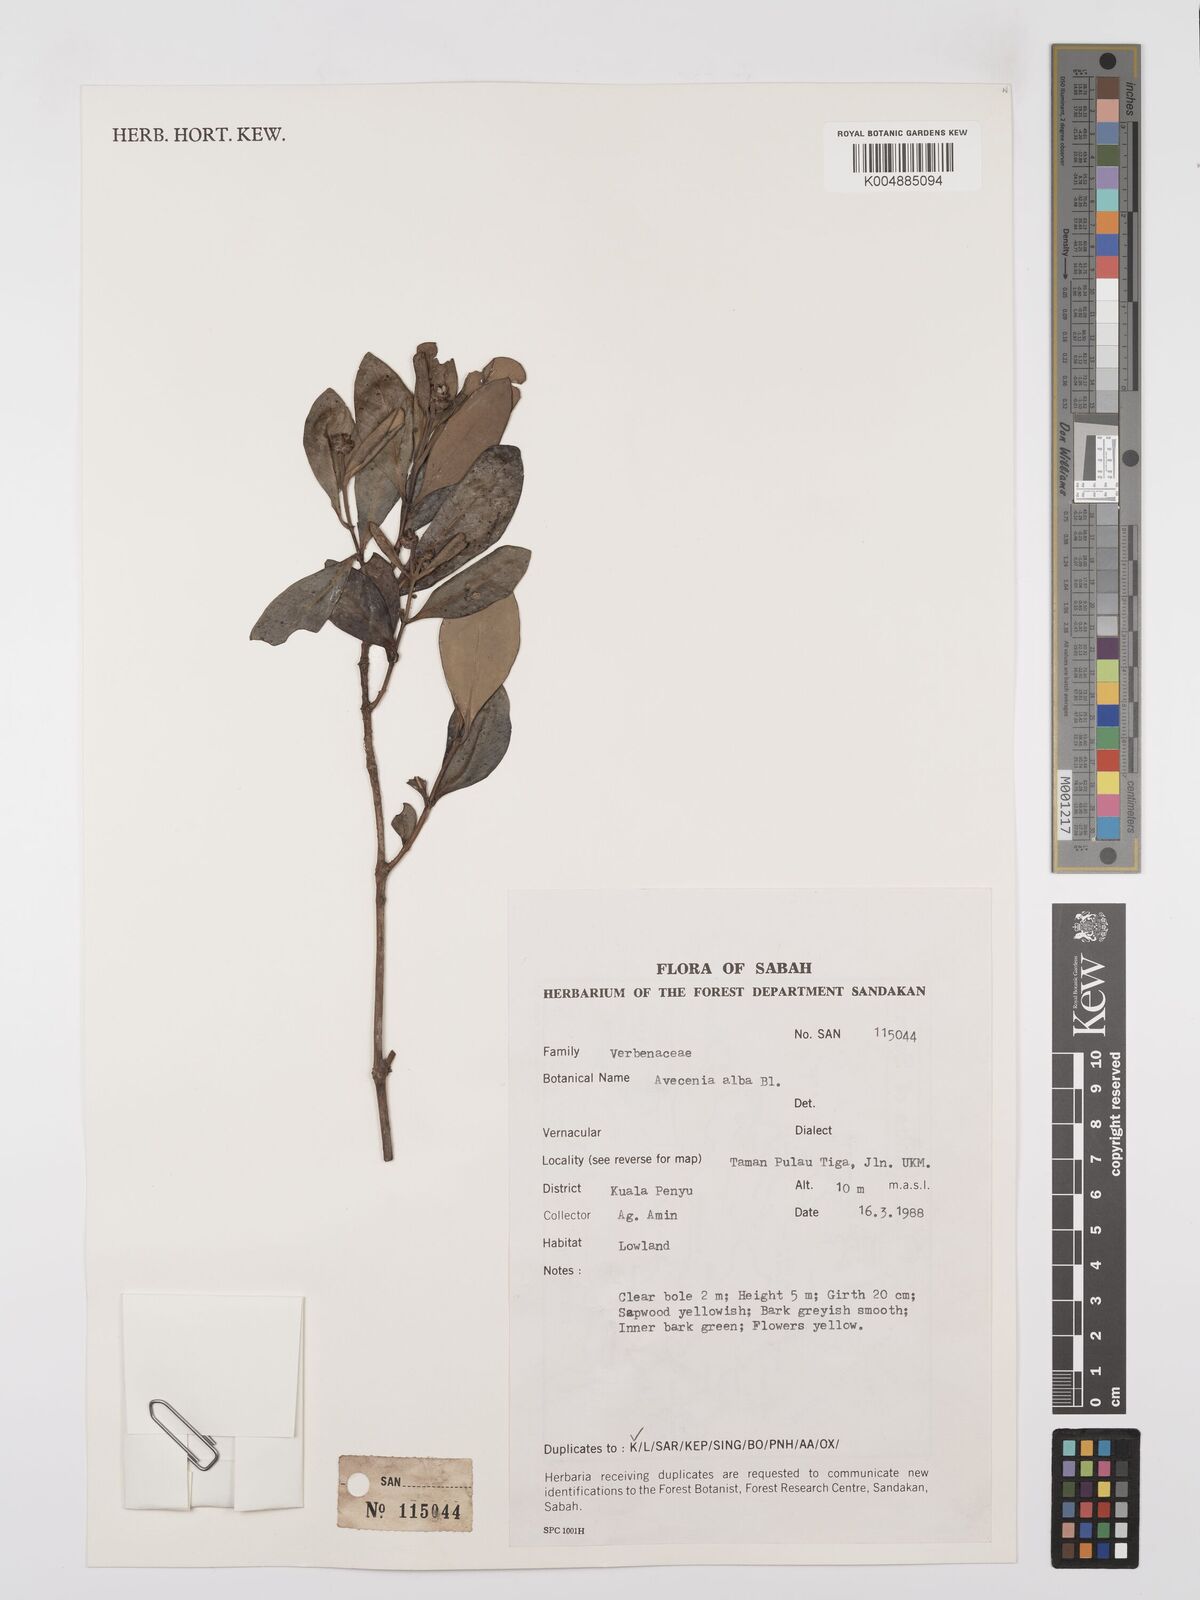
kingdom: Plantae
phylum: Tracheophyta
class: Magnoliopsida
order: Lamiales
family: Acanthaceae
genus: Avicennia
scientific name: Avicennia alba
